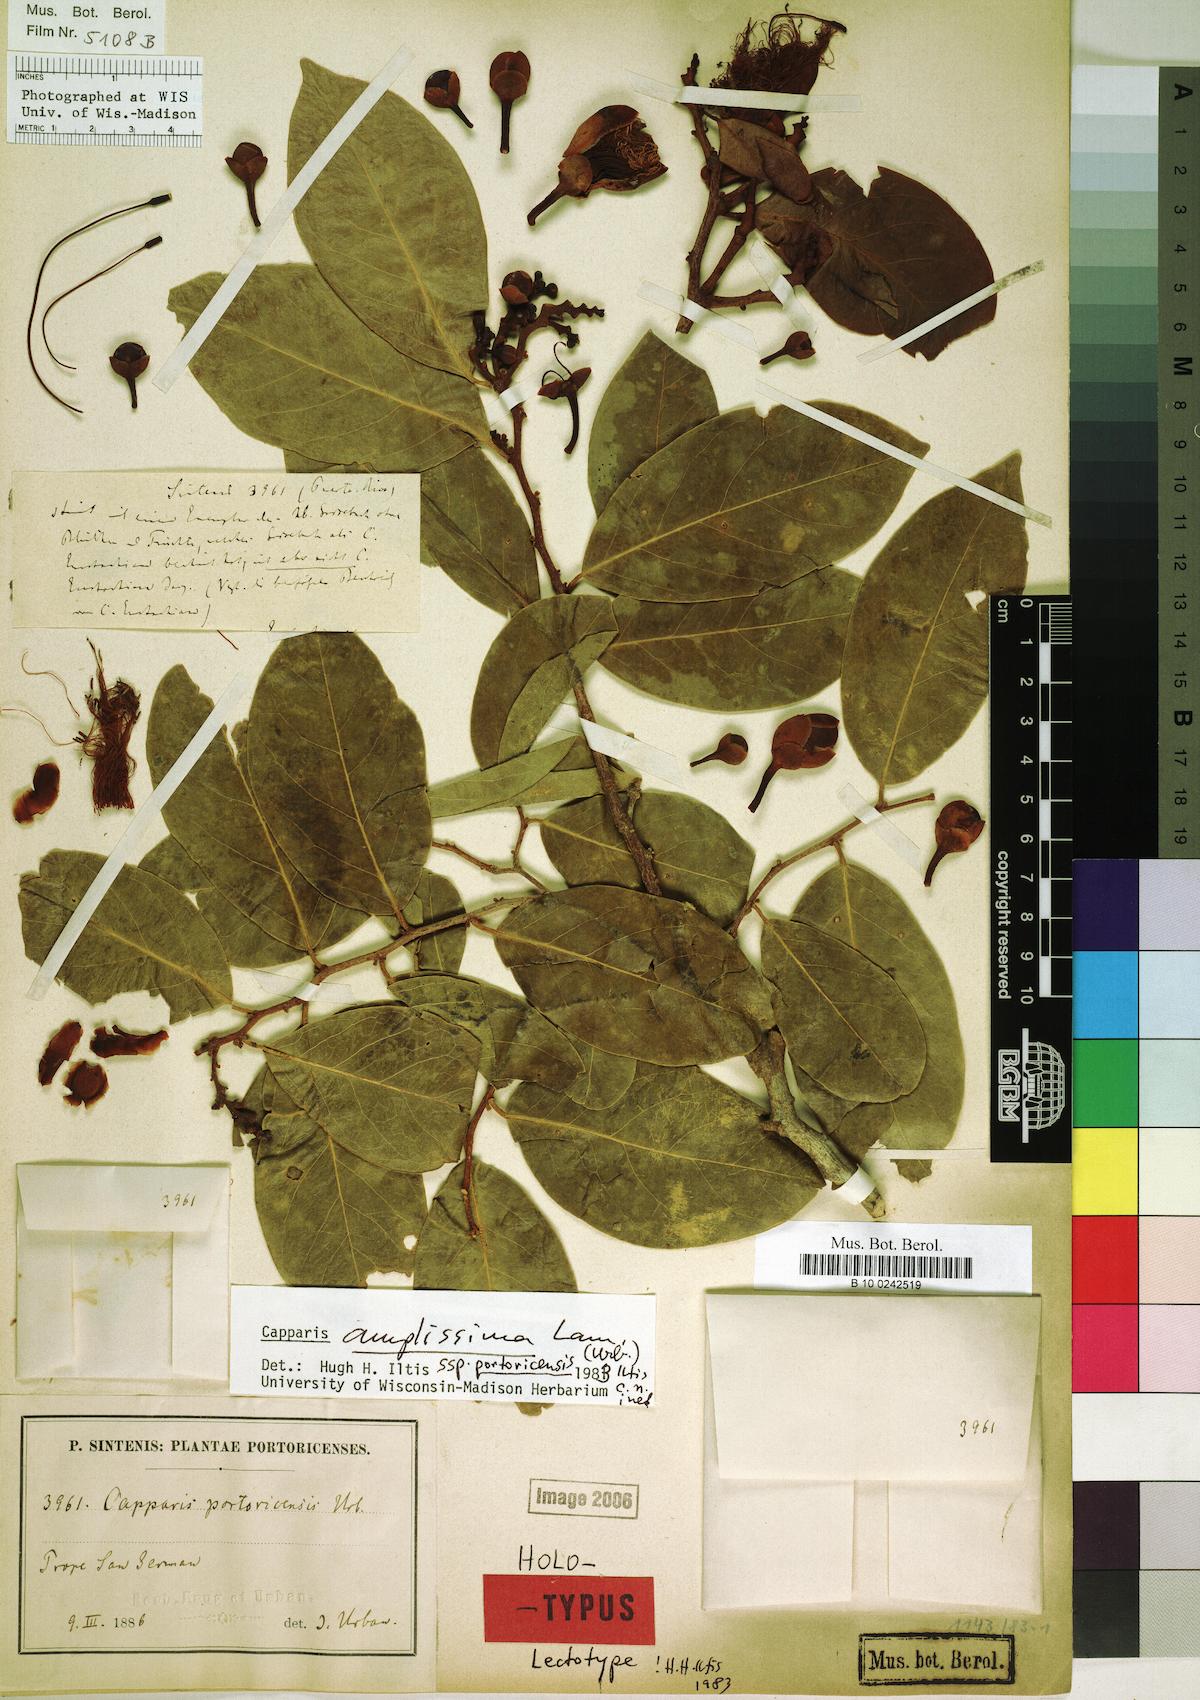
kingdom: Plantae
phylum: Tracheophyta
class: Magnoliopsida
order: Brassicales
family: Capparaceae
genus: Cynophalla
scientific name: Cynophalla amplissima
